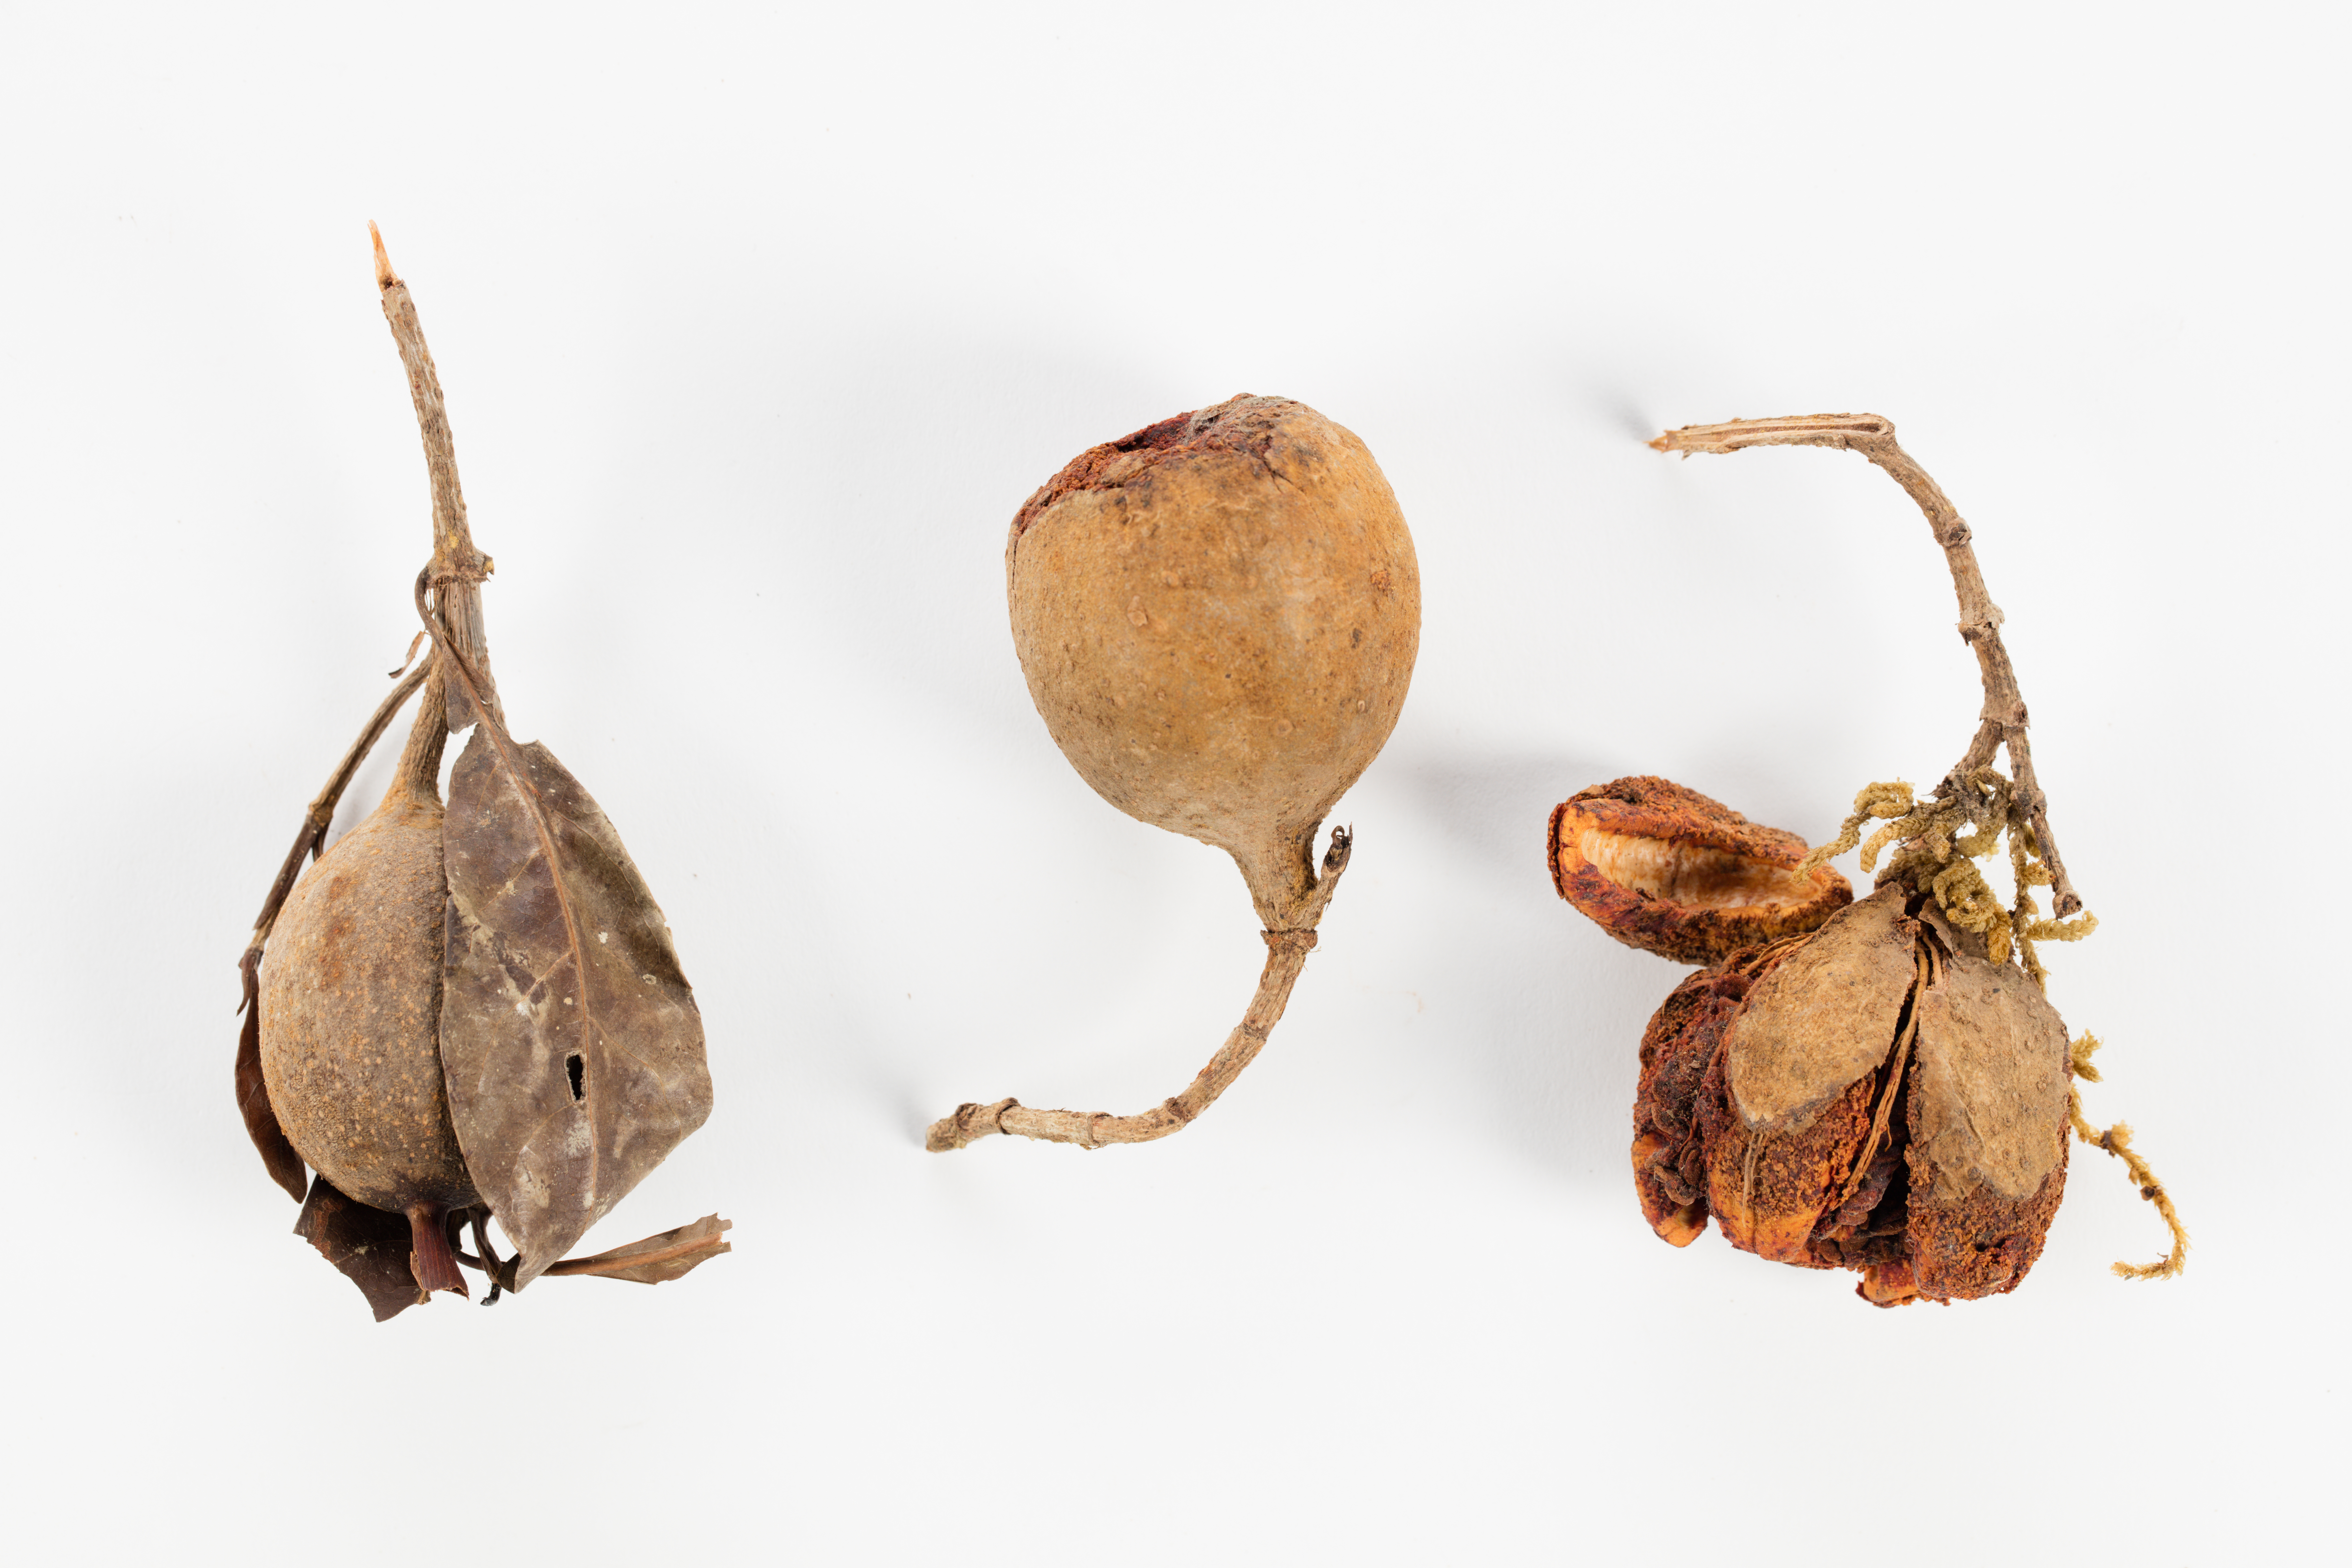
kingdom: Plantae
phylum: Tracheophyta
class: Magnoliopsida
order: Gentianales
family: Rubiaceae
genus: Gardenia
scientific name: Gardenia lamingtonii
